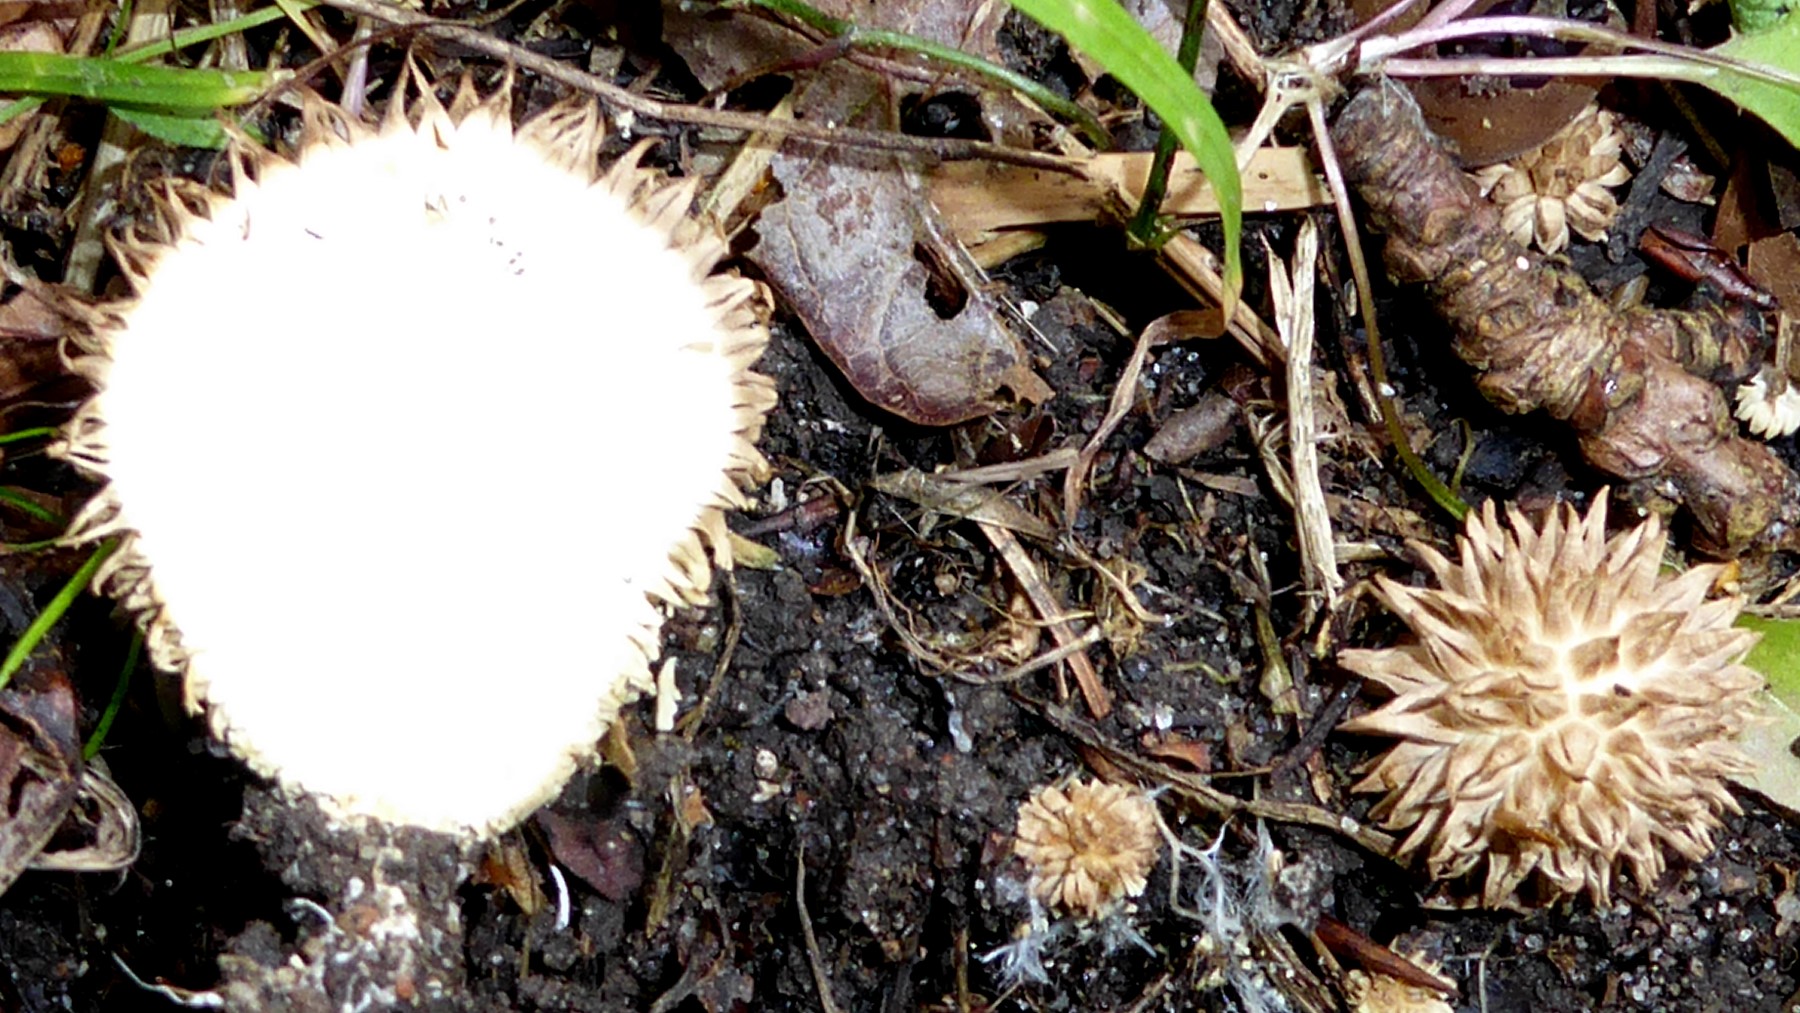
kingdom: Fungi
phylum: Basidiomycota
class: Agaricomycetes
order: Agaricales
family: Lycoperdaceae
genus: Lycoperdon
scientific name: Lycoperdon echinatum
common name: pindsvine-støvbold
